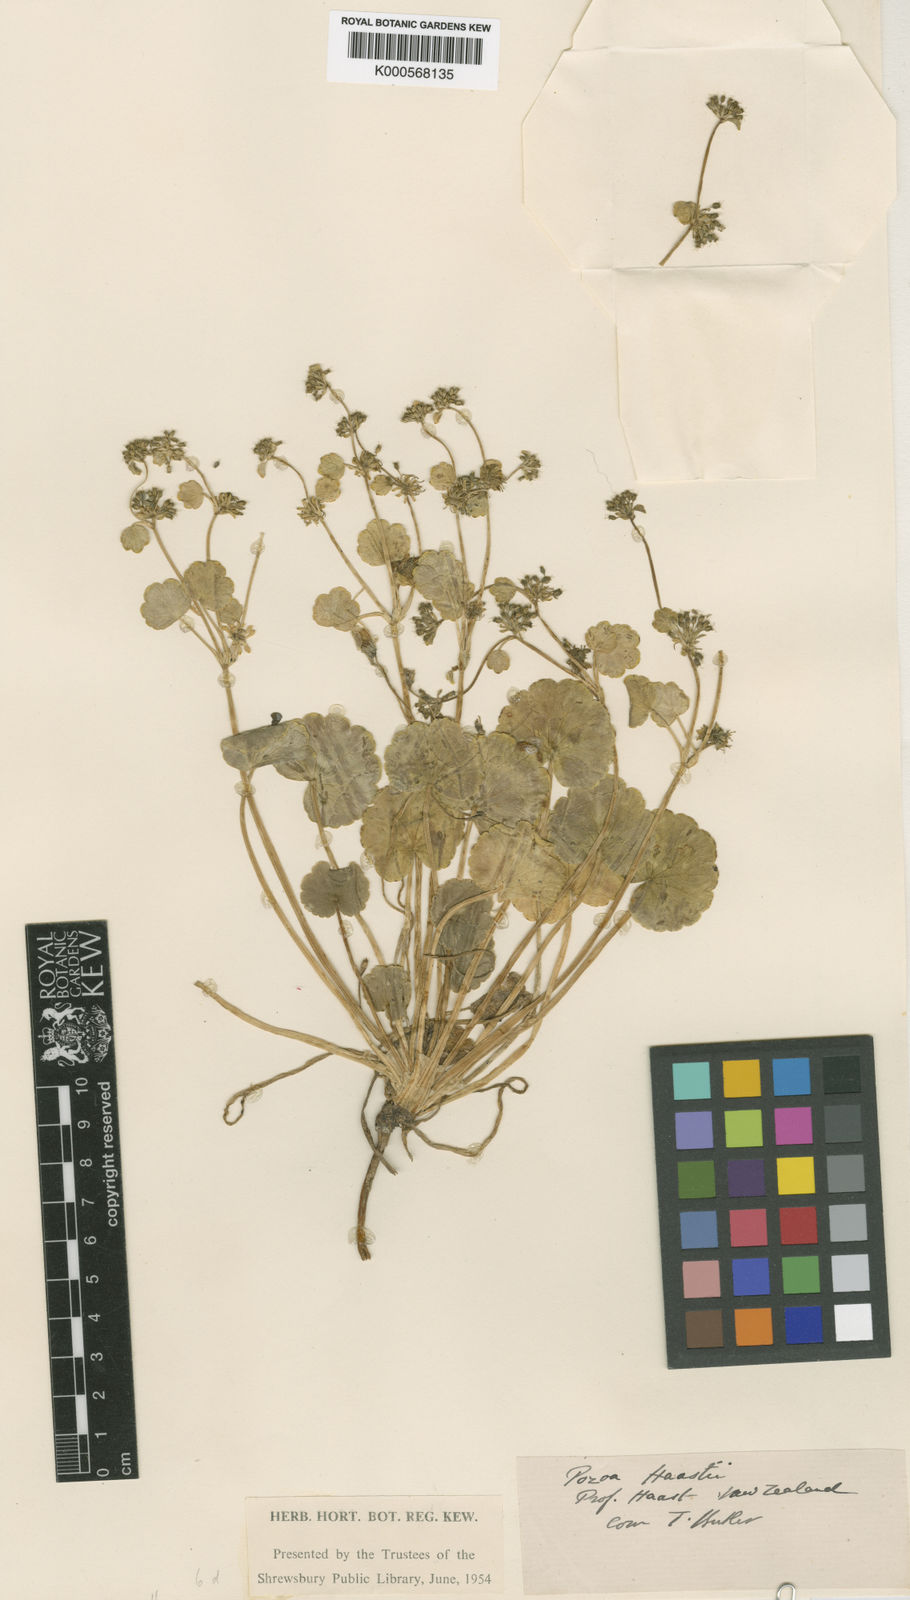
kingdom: Plantae
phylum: Tracheophyta
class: Magnoliopsida
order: Apiales
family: Apiaceae
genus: Azorella
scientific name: Azorella haastii
